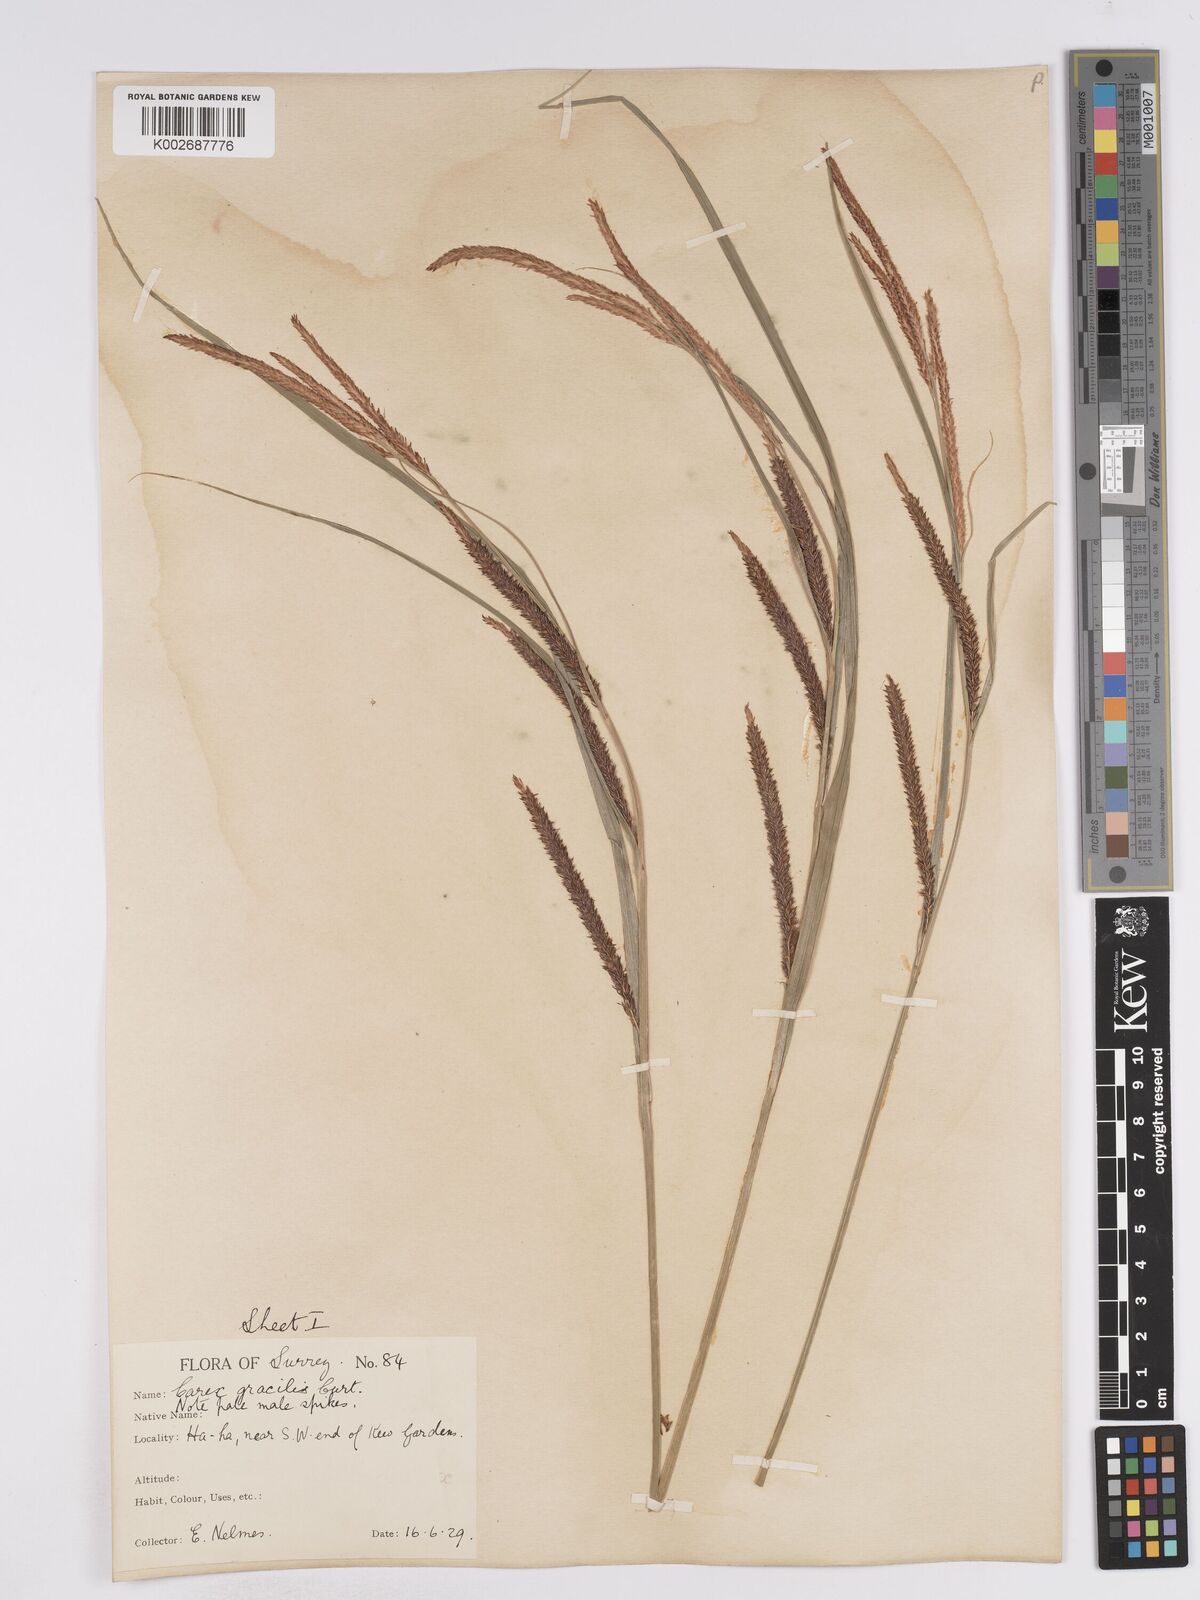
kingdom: Plantae
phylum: Tracheophyta
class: Liliopsida
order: Poales
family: Cyperaceae
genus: Carex
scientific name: Carex acuta
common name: Slender tufted-sedge
